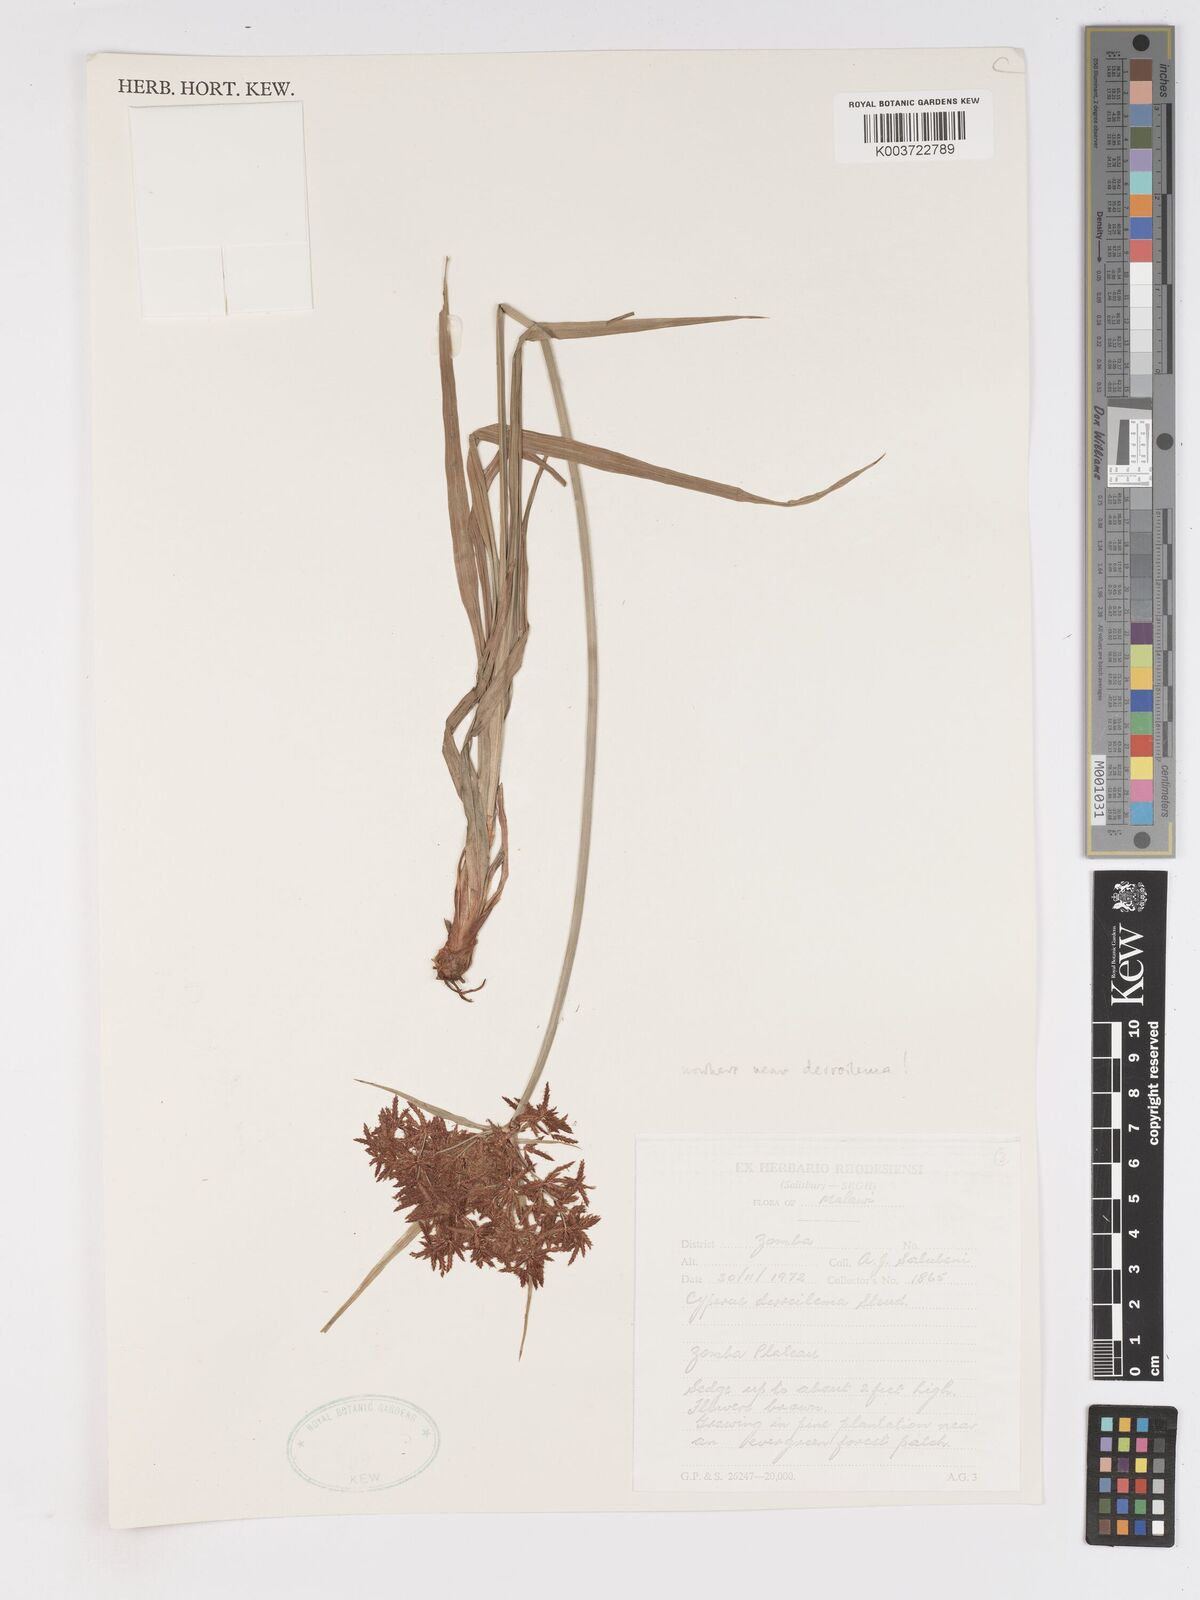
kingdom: Plantae
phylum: Tracheophyta
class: Liliopsida
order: Poales
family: Cyperaceae
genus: Cyperus
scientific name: Cyperus derreilema
